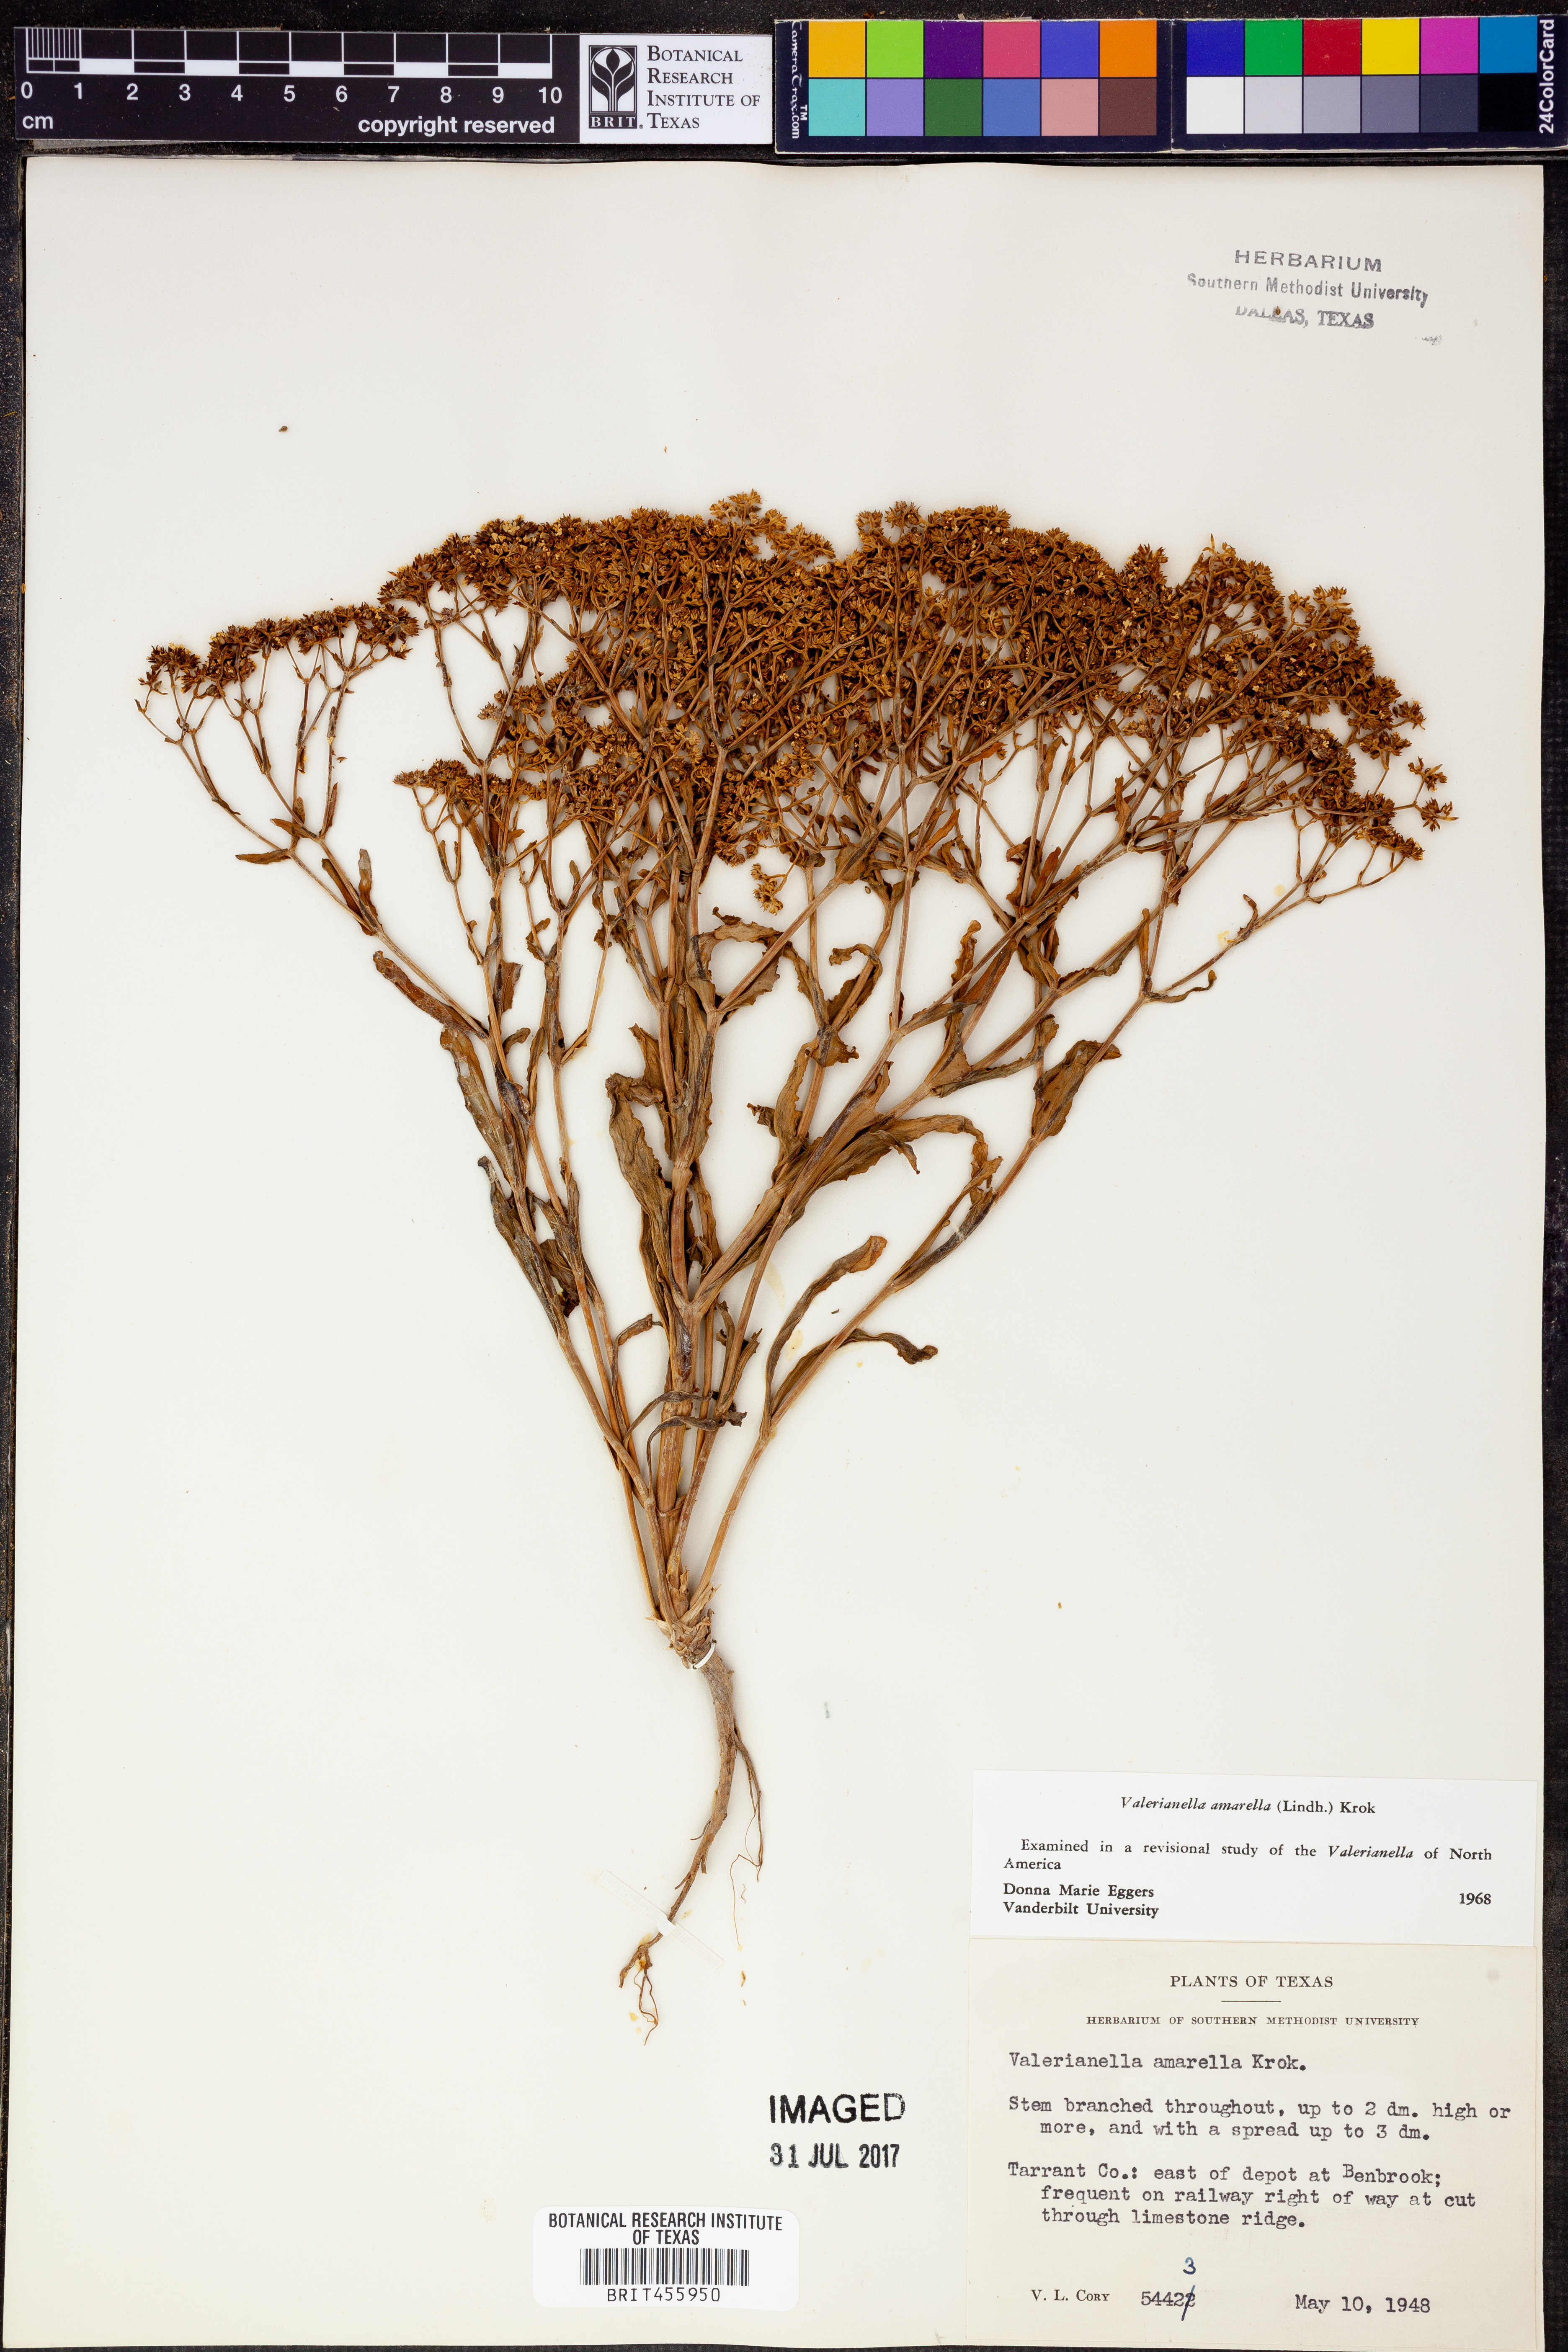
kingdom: Plantae
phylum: Tracheophyta
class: Magnoliopsida
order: Dipsacales
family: Caprifoliaceae
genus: Valerianella
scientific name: Valerianella amarella
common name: Hariy cornsalad
